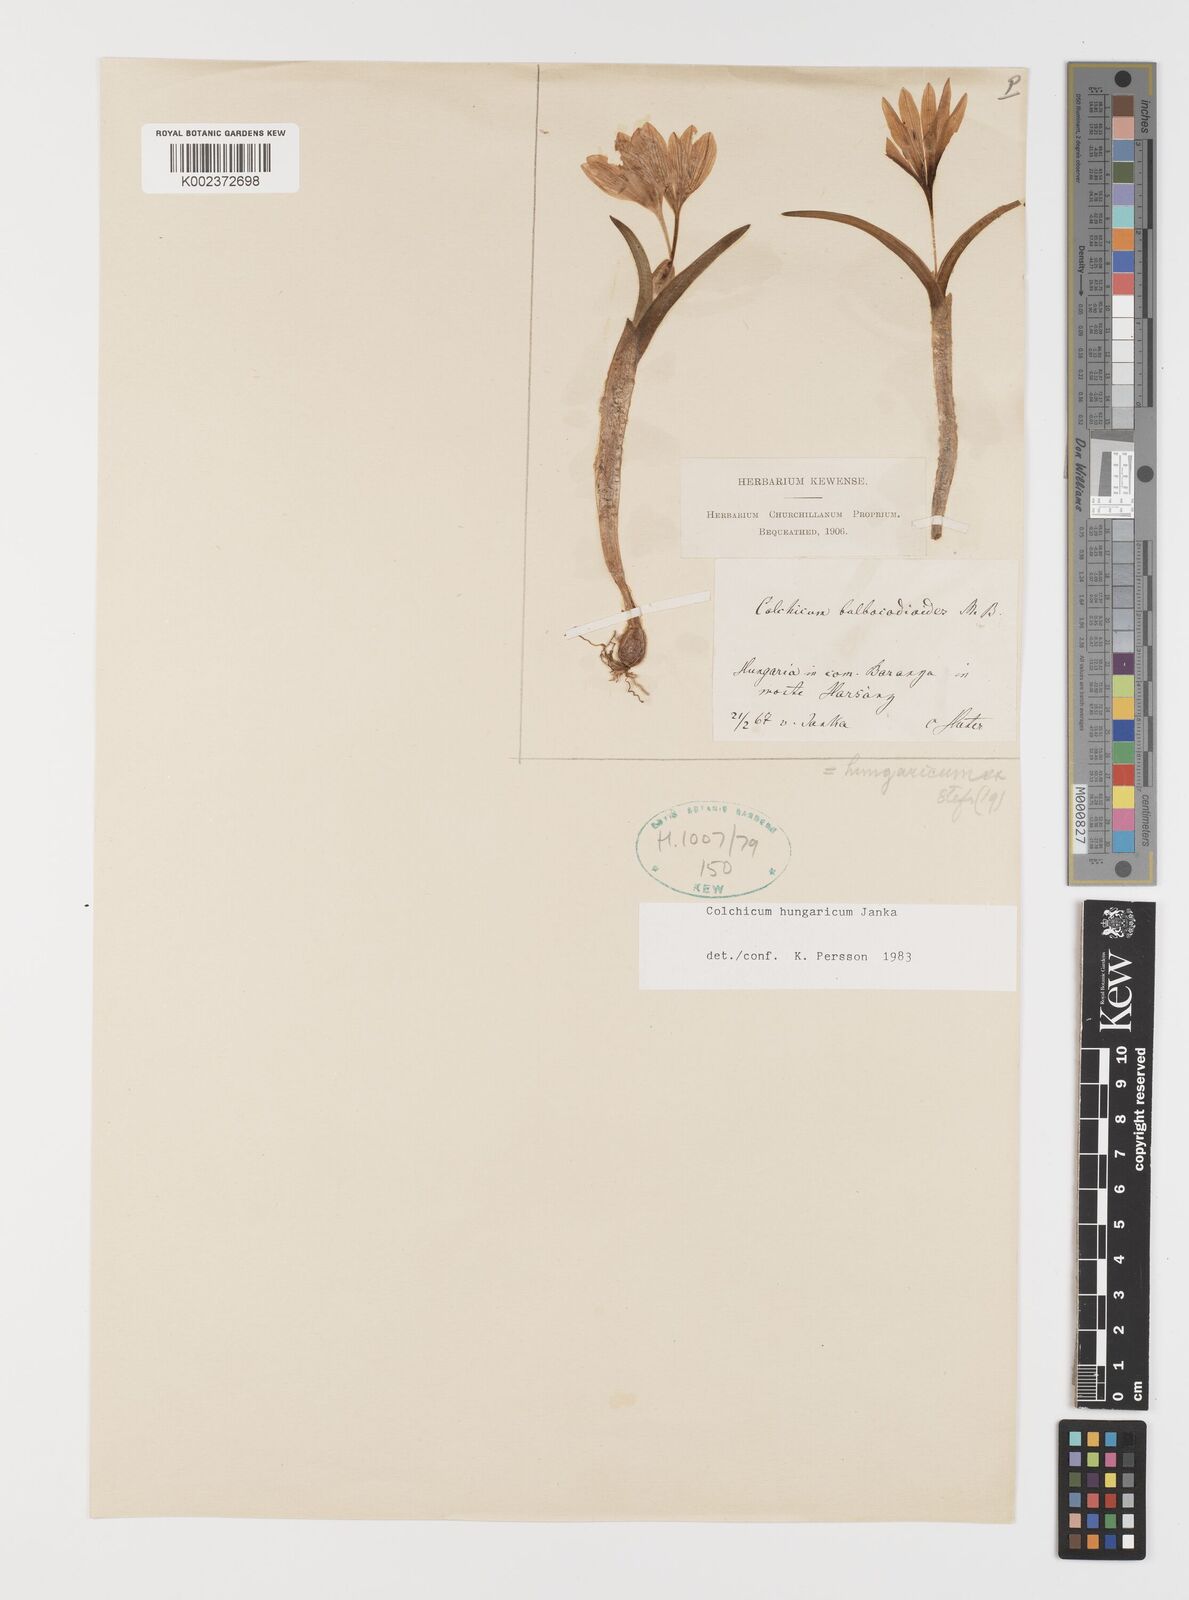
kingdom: Plantae
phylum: Tracheophyta
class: Liliopsida
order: Liliales
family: Colchicaceae
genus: Colchicum
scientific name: Colchicum hungaricum
